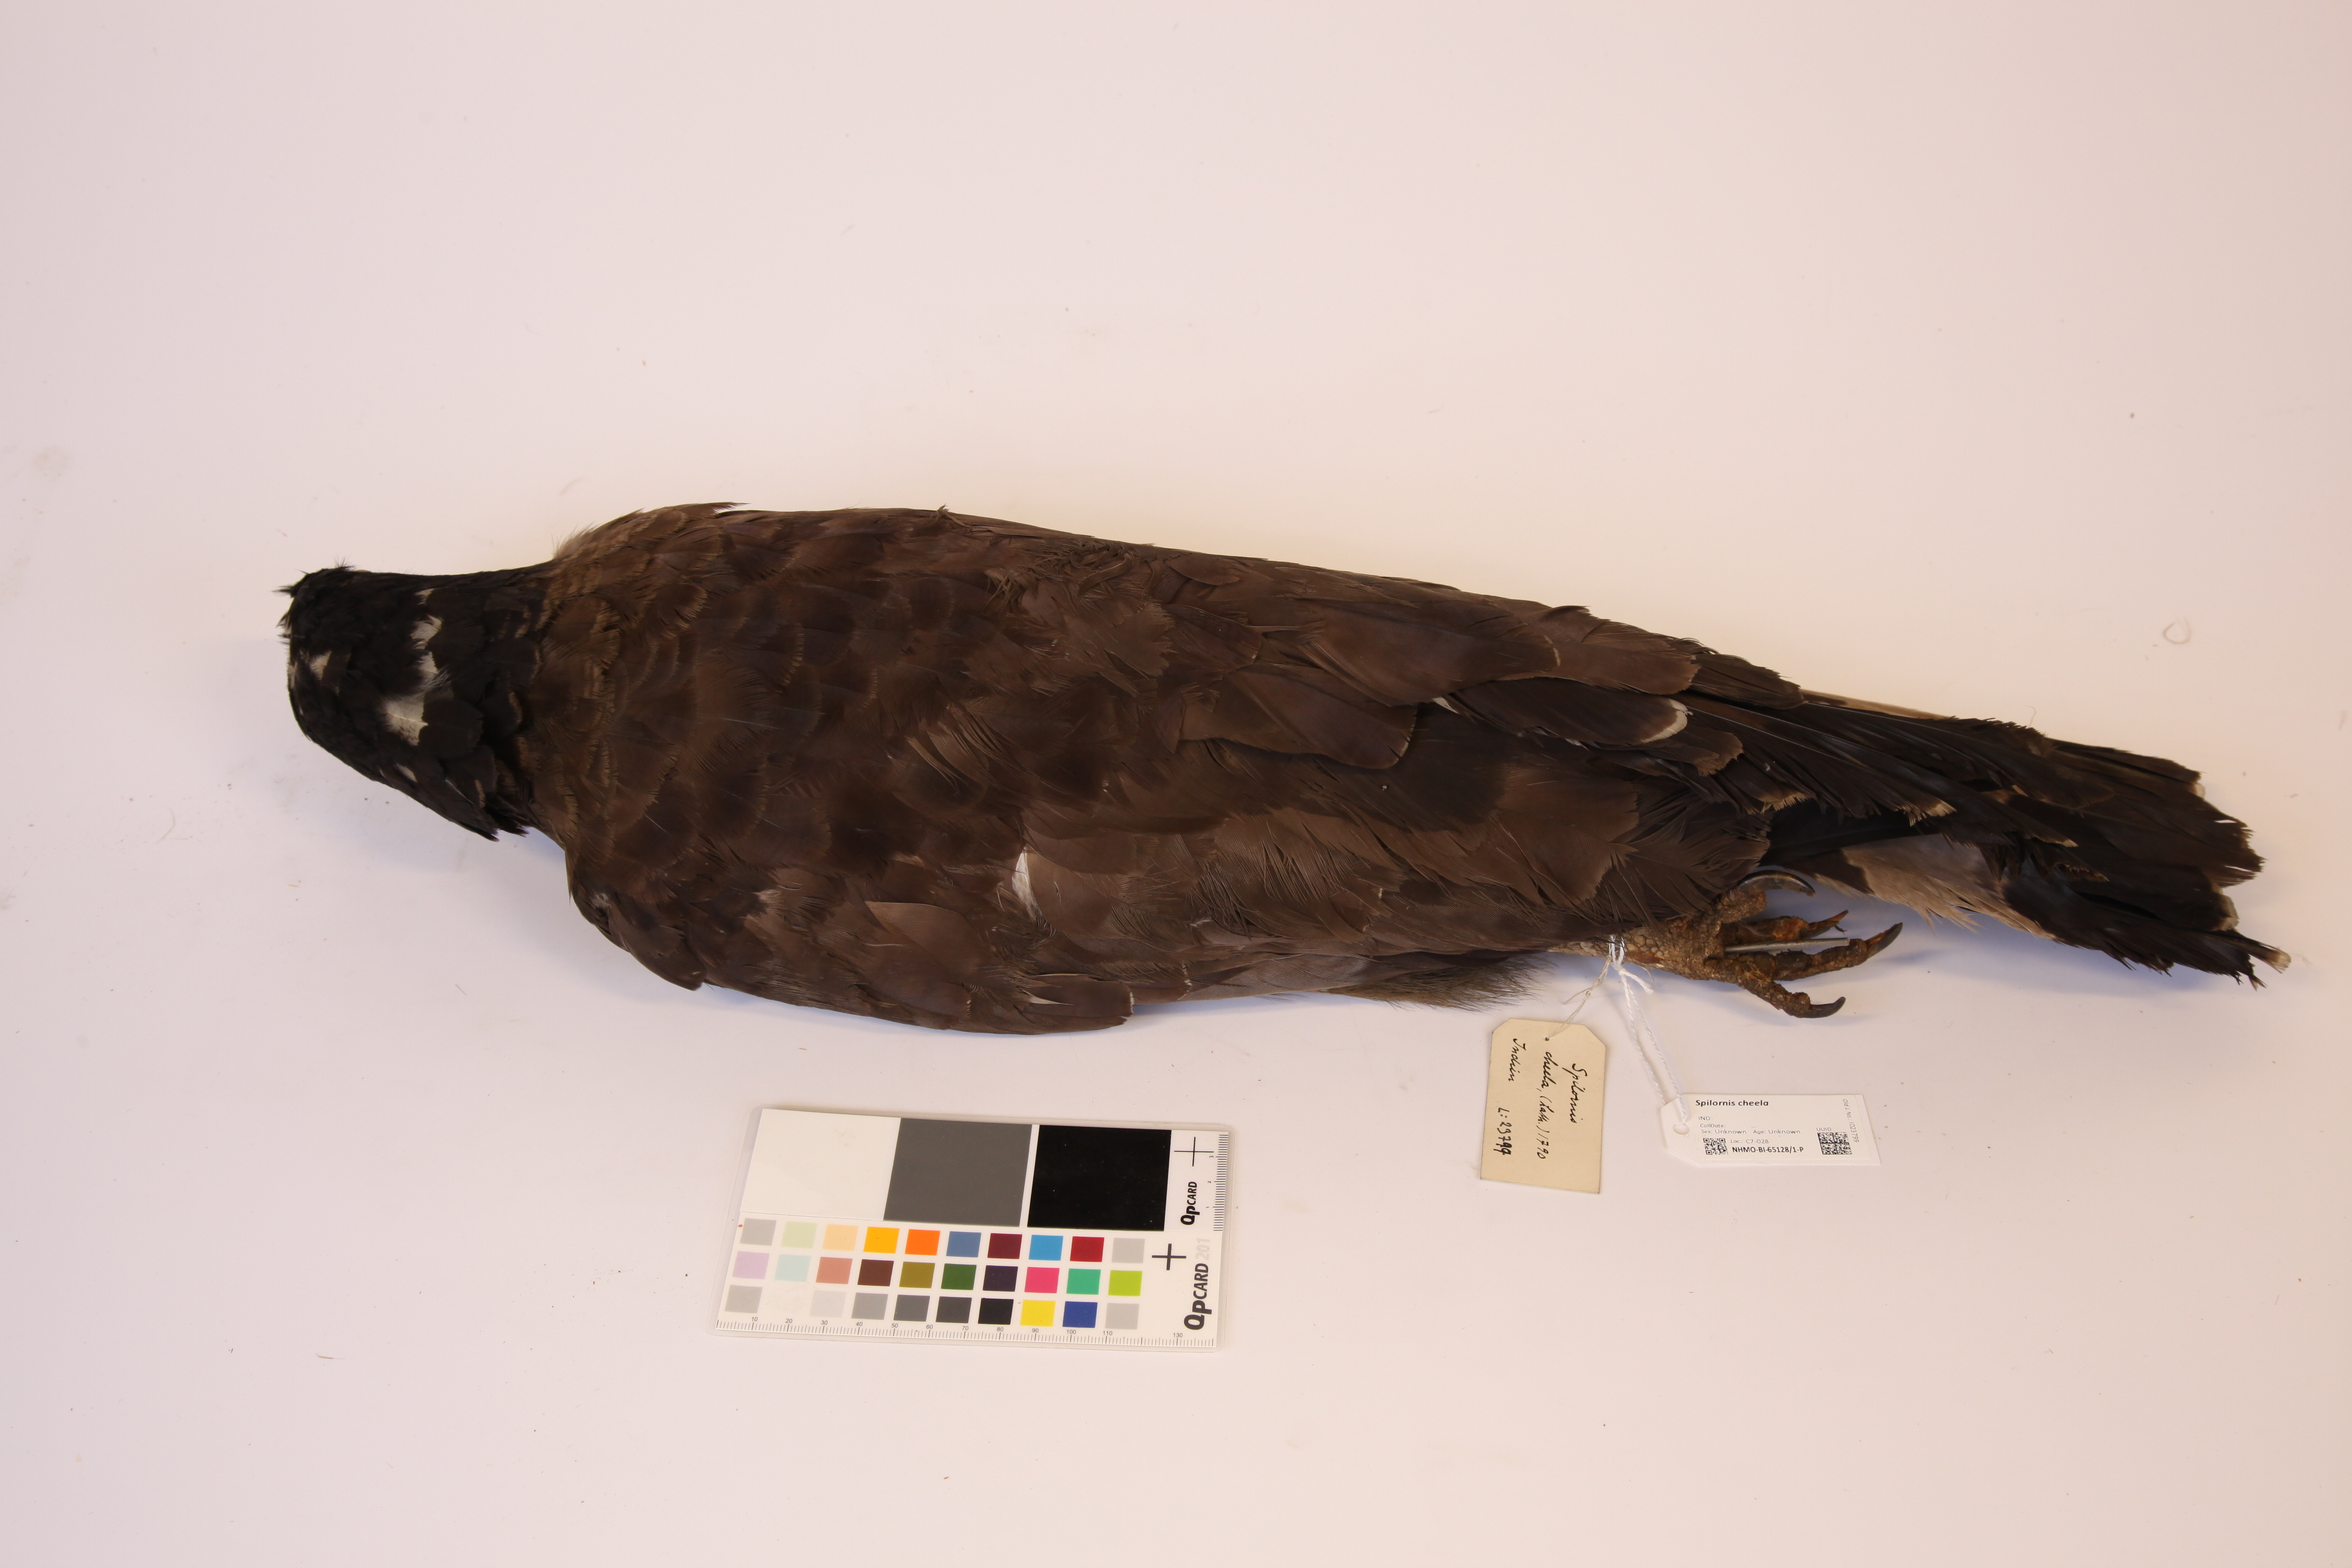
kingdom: Animalia
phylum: Chordata
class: Aves
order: Accipitriformes
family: Accipitridae
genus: Spilornis
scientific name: Spilornis cheela
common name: Crested serpent eagle
